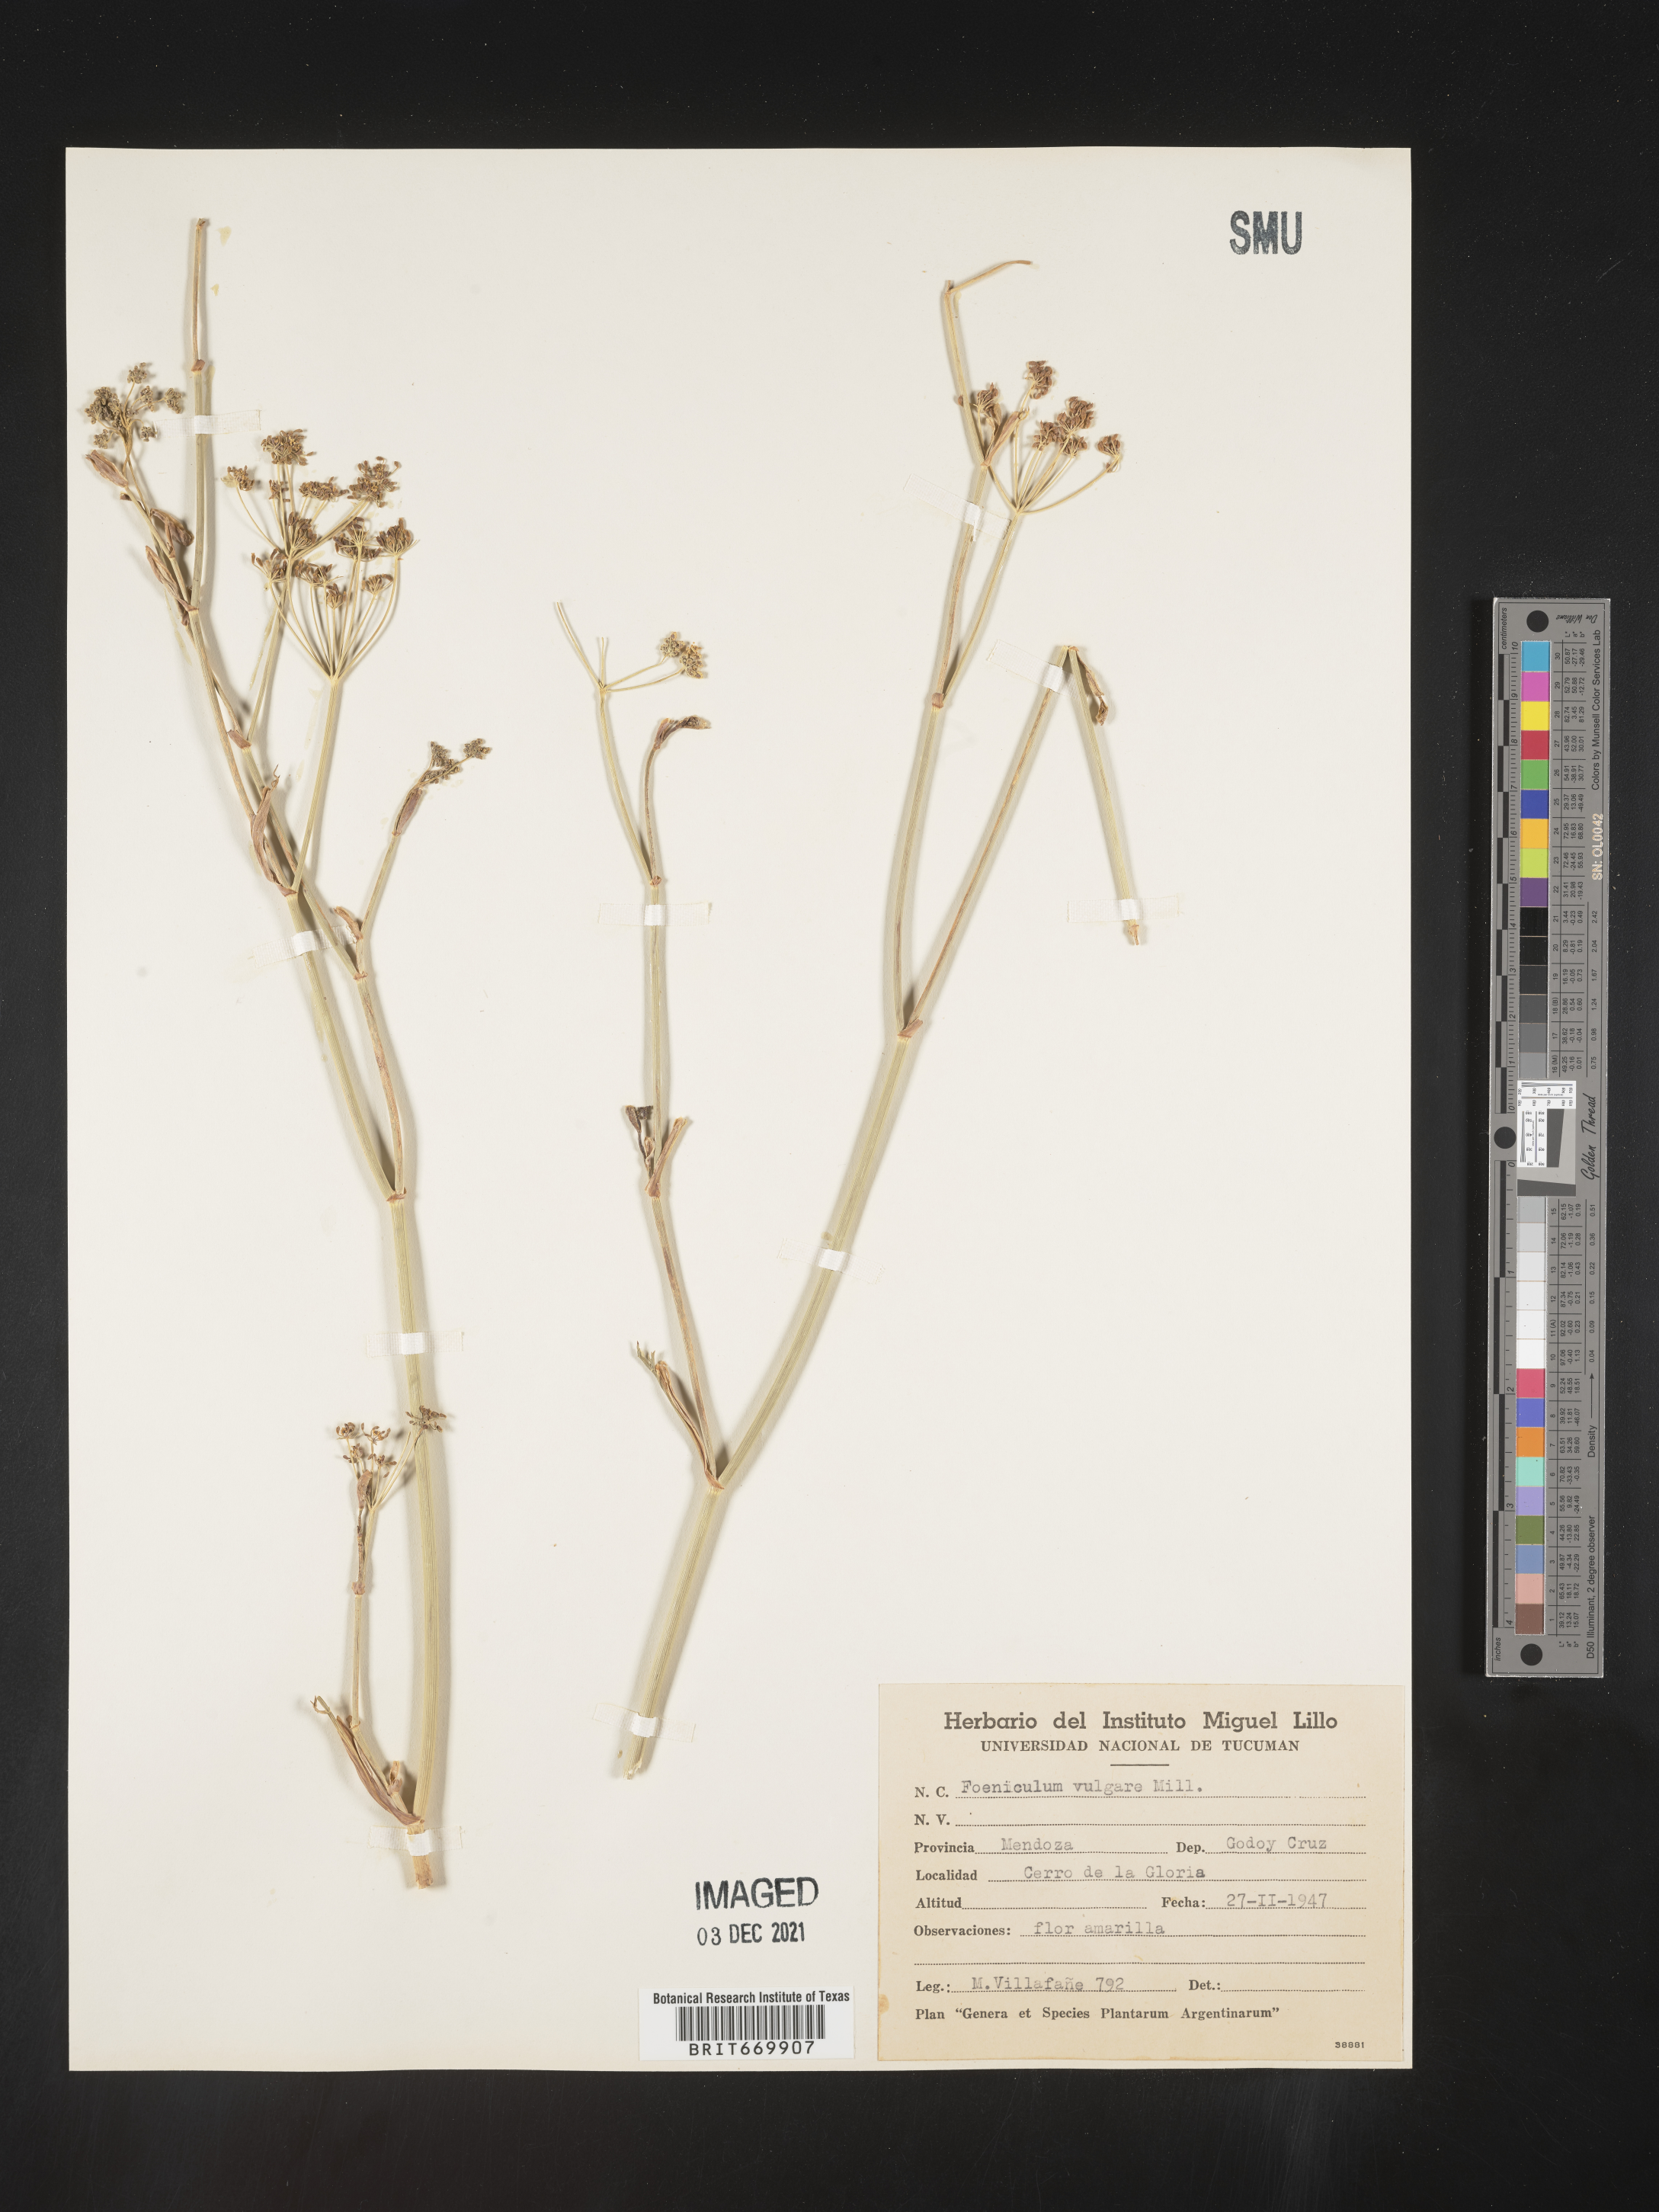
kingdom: Plantae
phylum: Tracheophyta
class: Magnoliopsida
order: Apiales
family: Apiaceae
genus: Foeniculum
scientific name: Foeniculum
